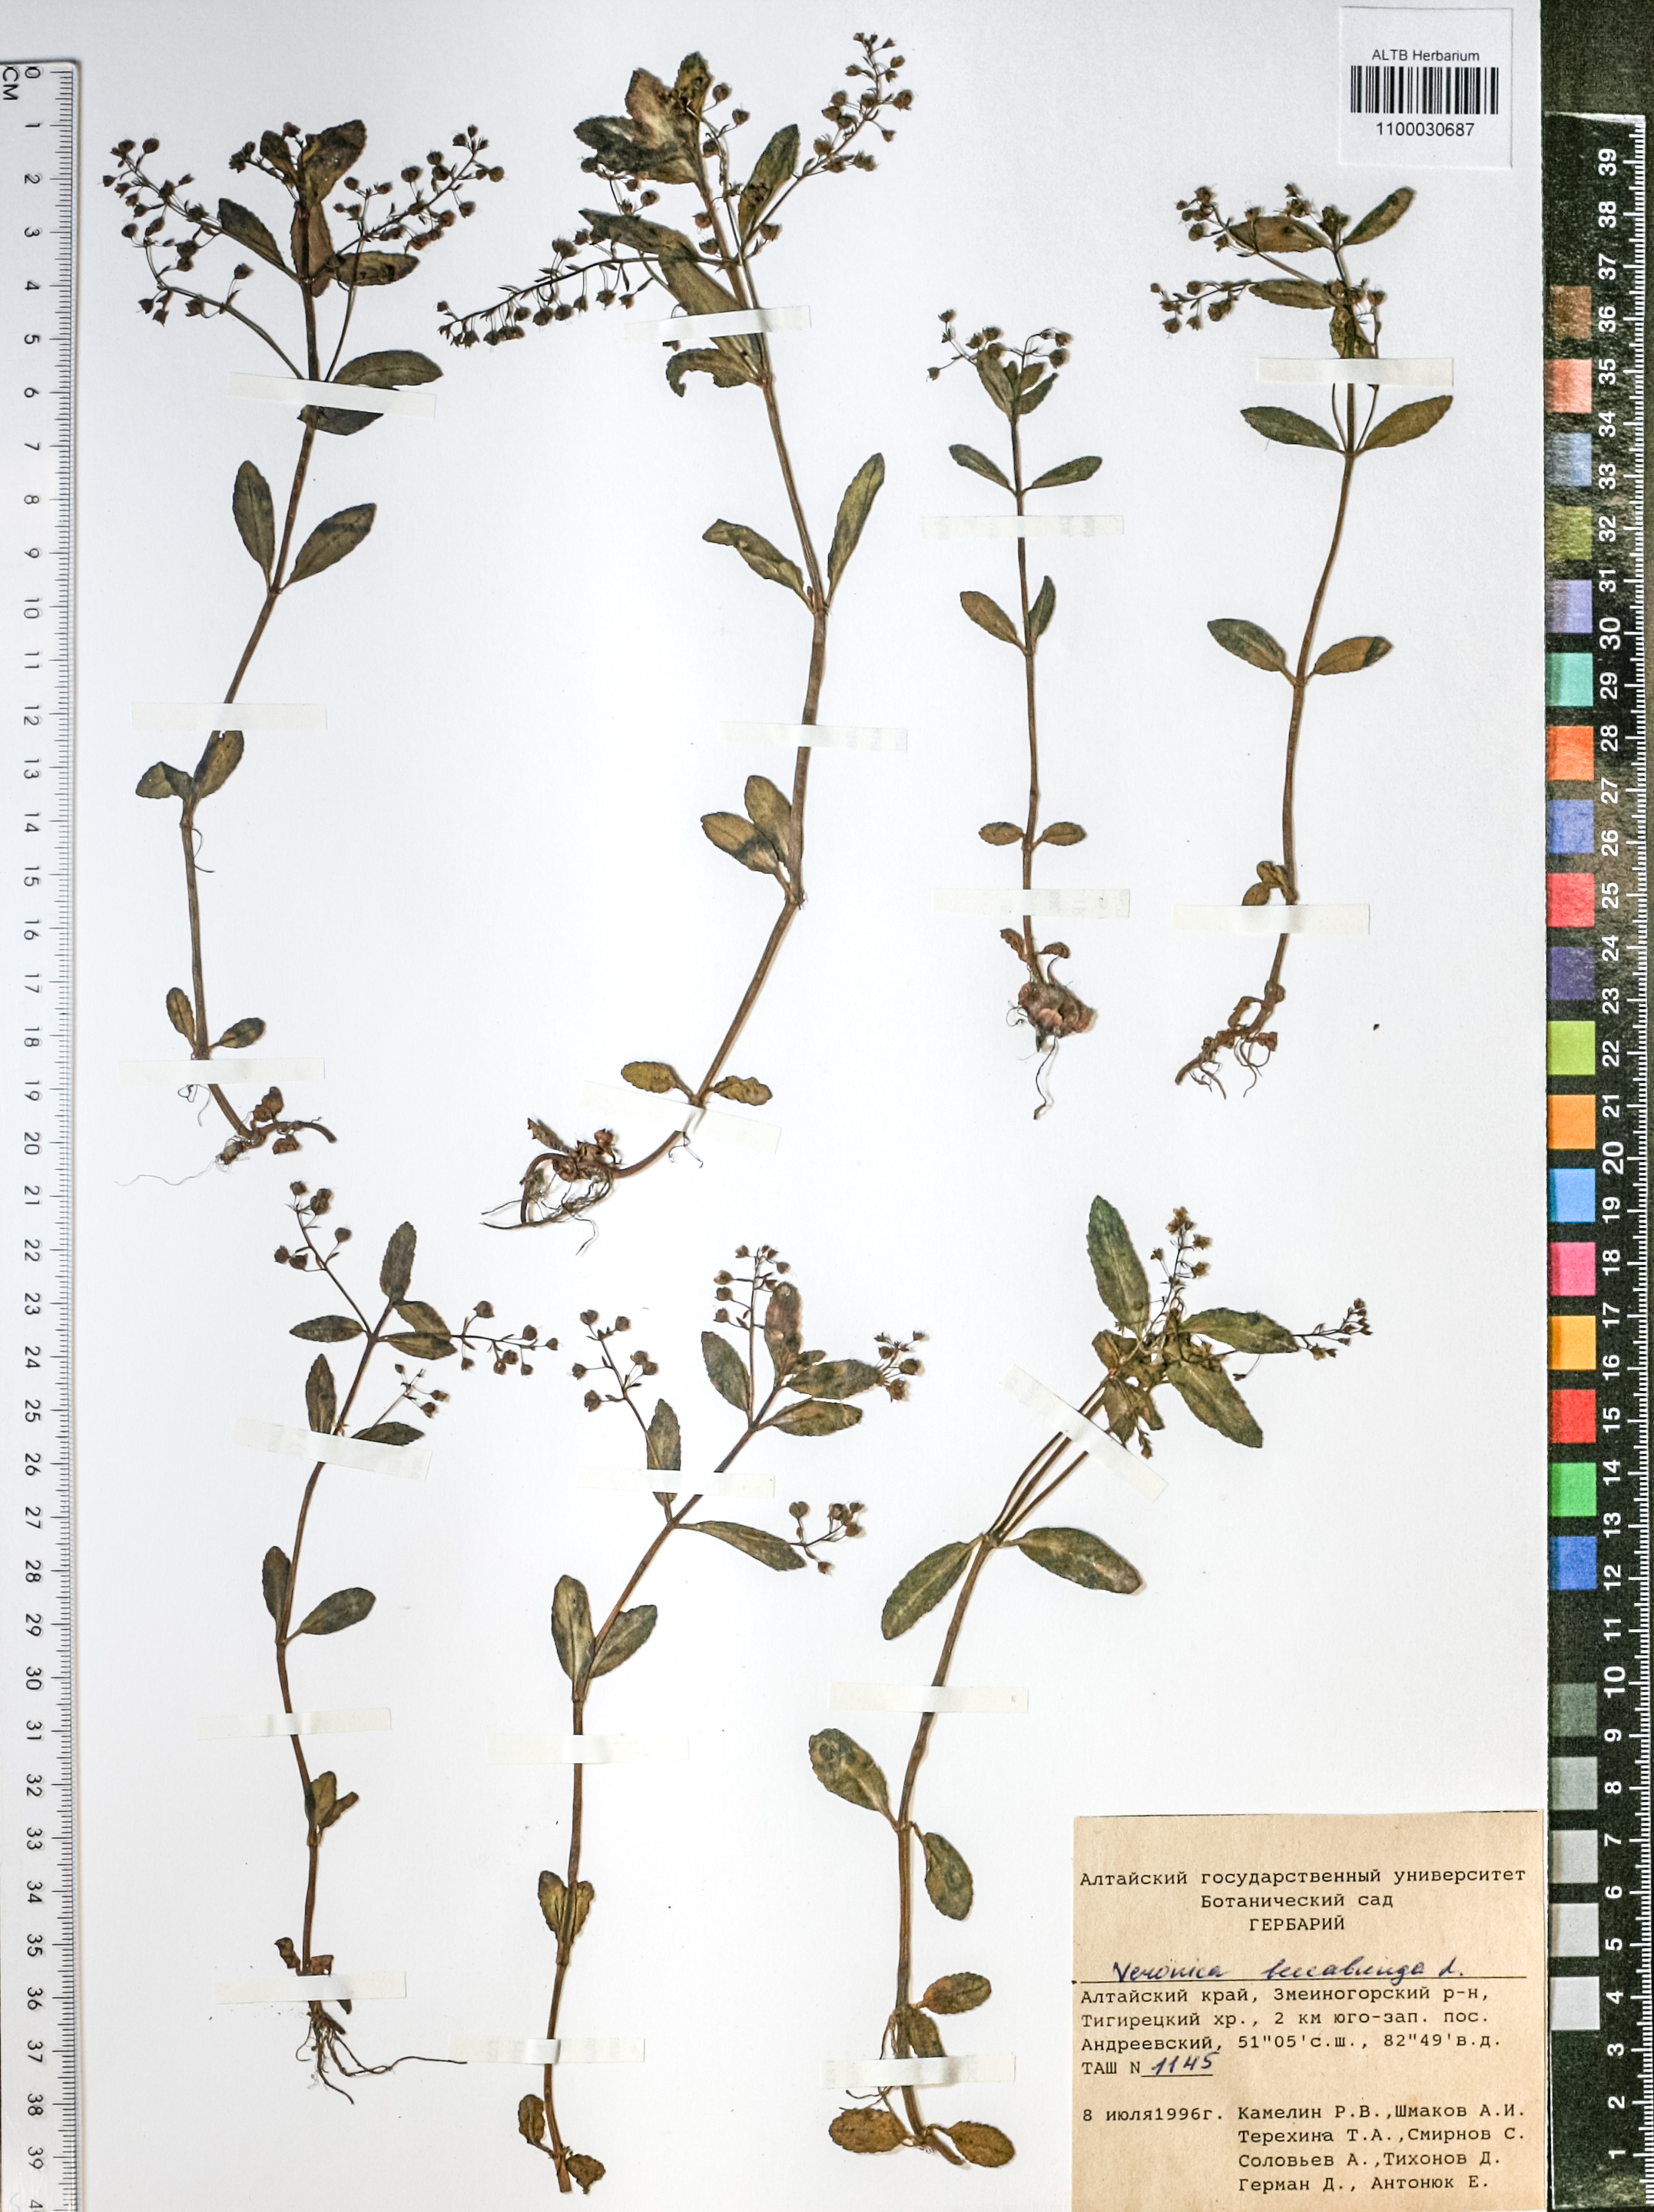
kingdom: Plantae
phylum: Tracheophyta
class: Magnoliopsida
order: Lamiales
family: Plantaginaceae
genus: Veronica
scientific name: Veronica beccabunga
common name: Brooklime
